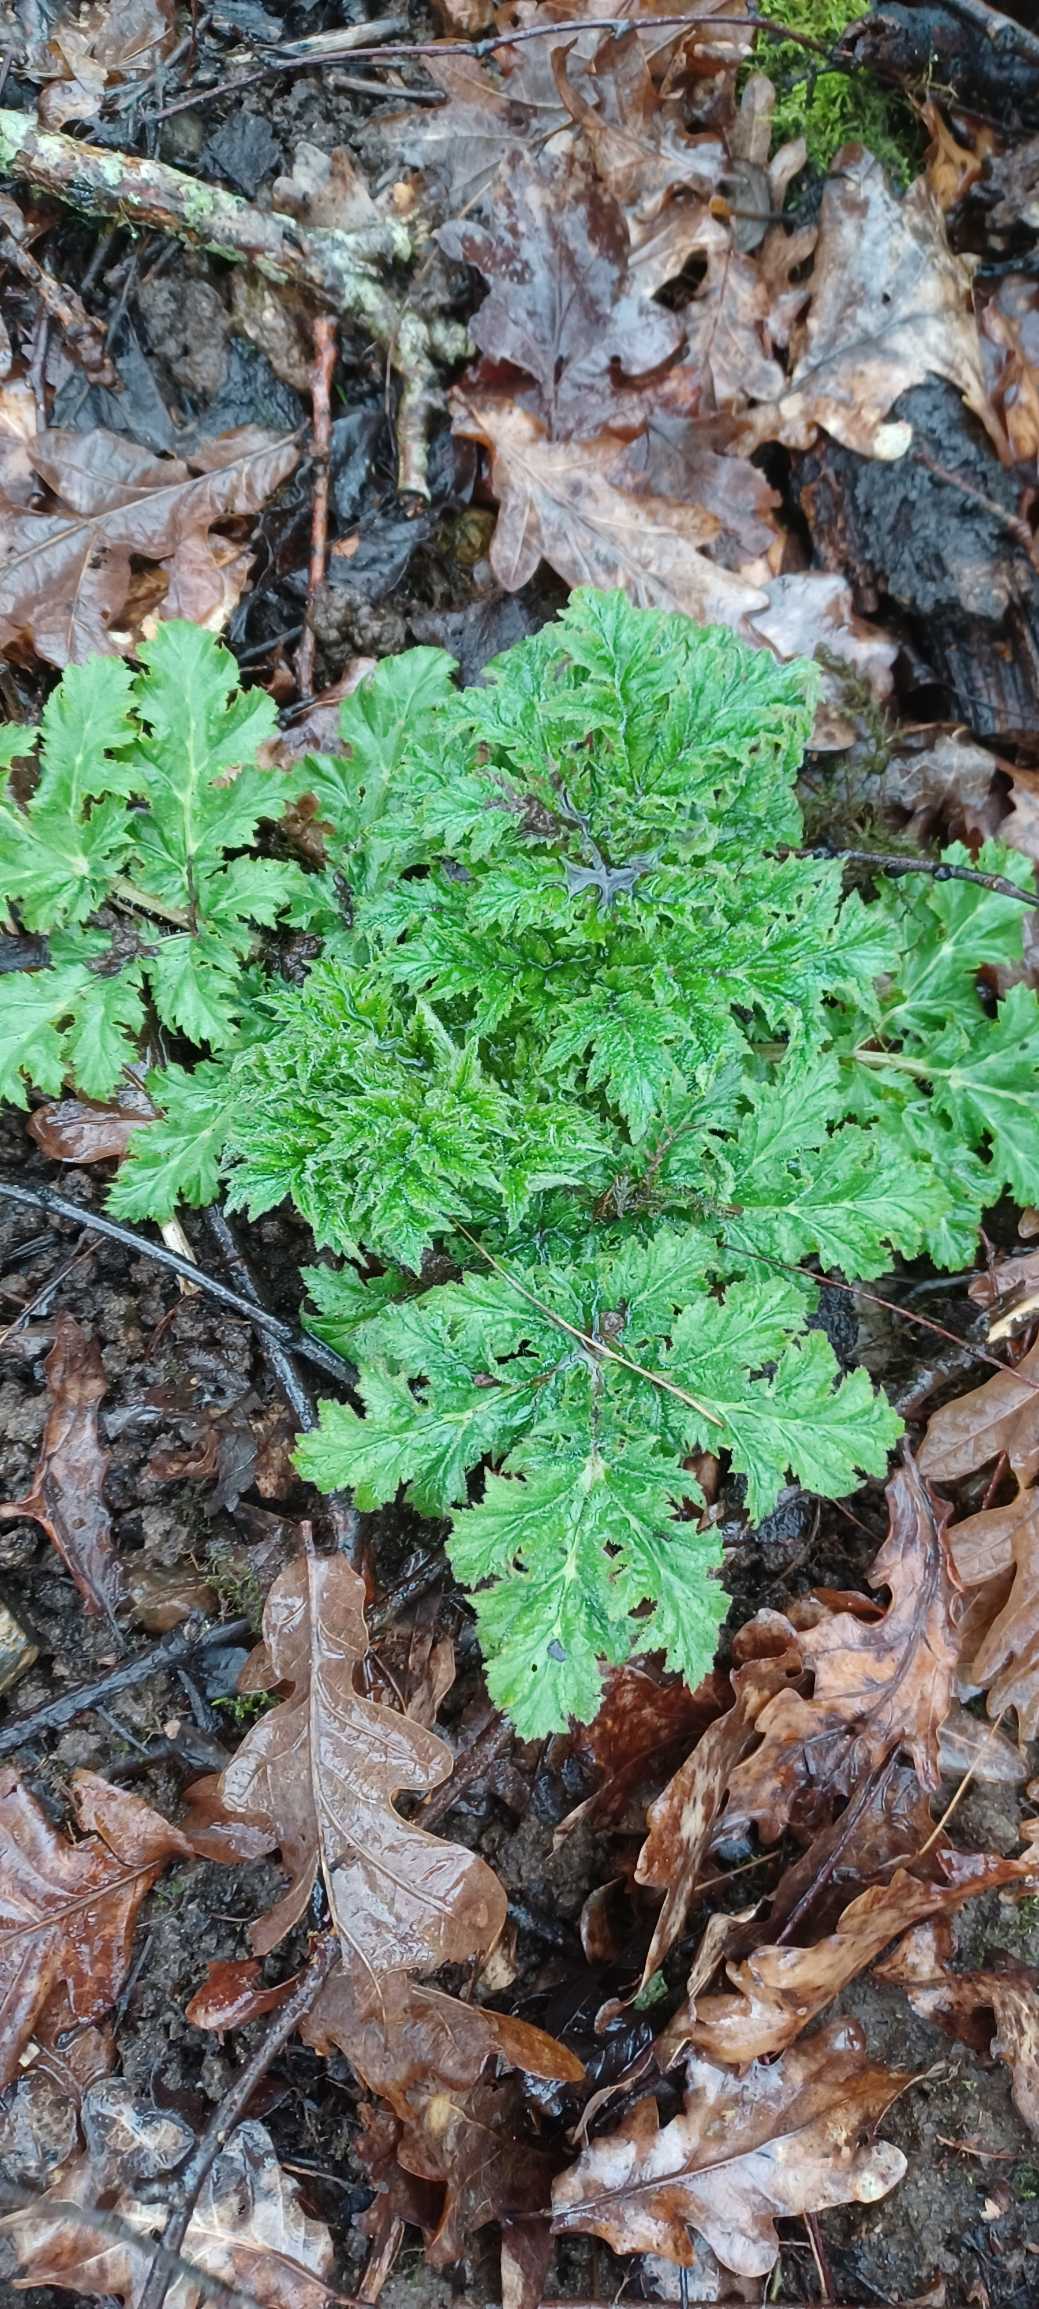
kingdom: Plantae
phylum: Tracheophyta
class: Magnoliopsida
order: Apiales
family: Apiaceae
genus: Heracleum
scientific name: Heracleum mantegazzianum
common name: Kæmpe-bjørneklo
